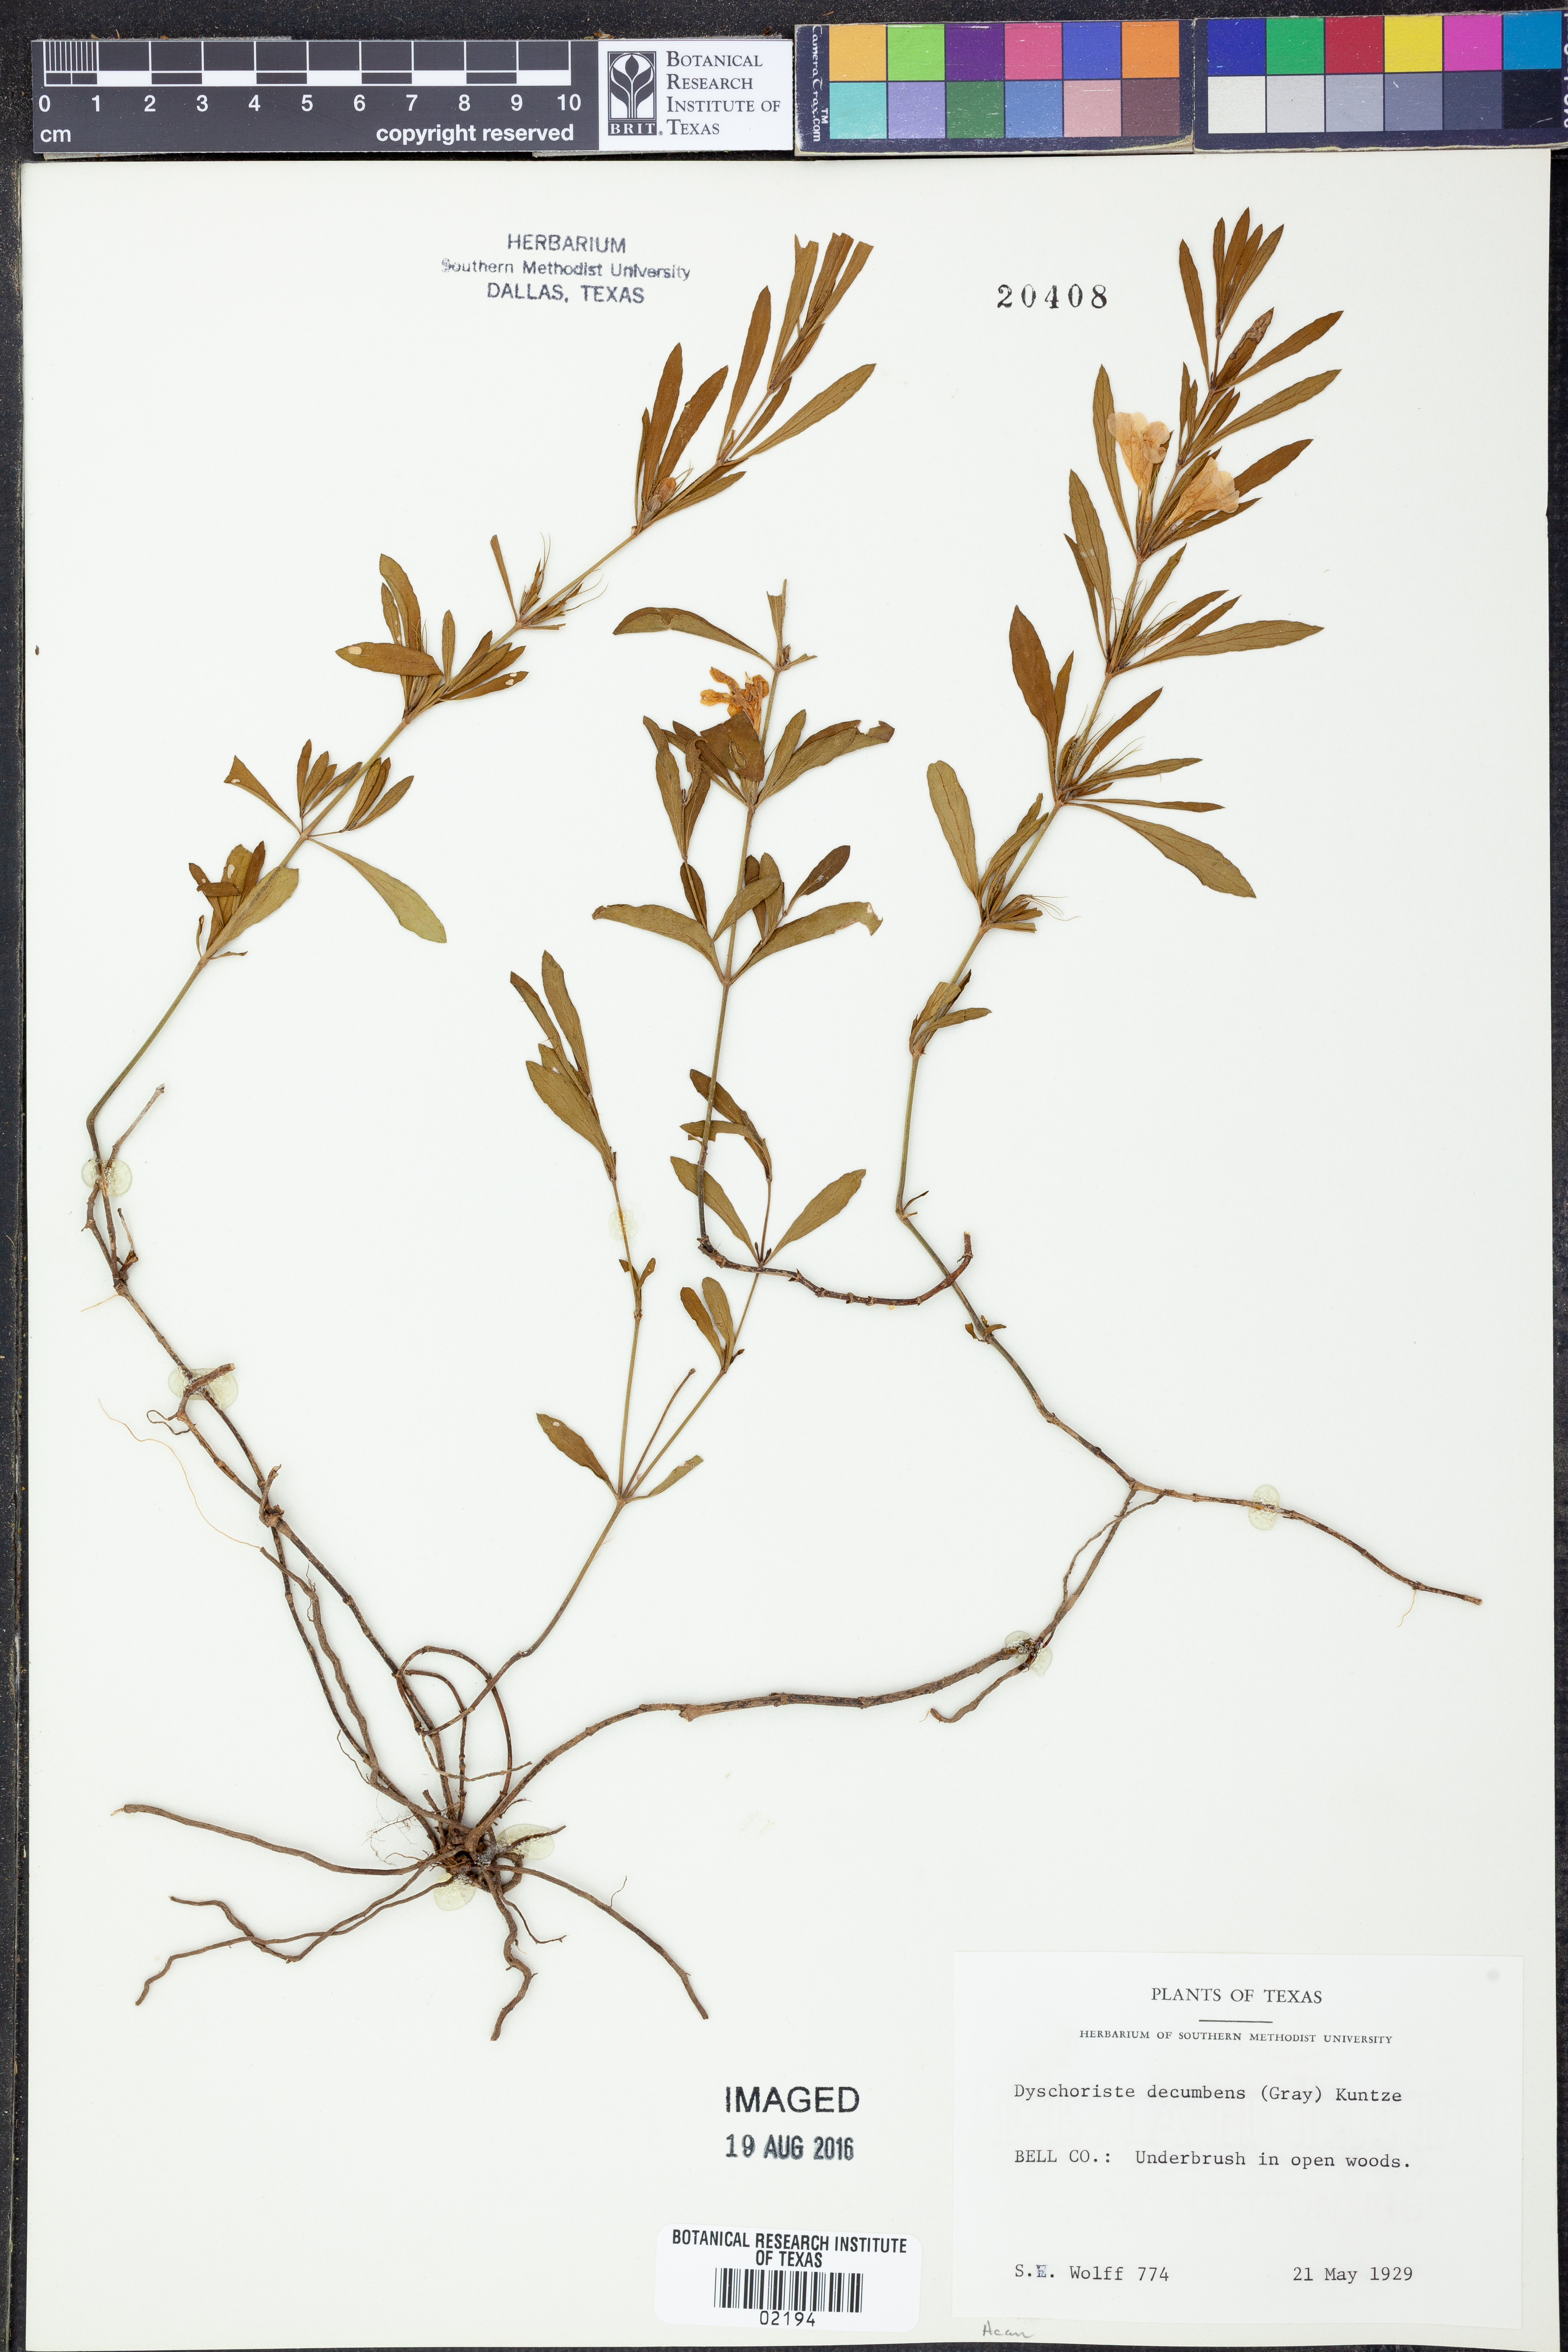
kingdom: Plantae
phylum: Tracheophyta
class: Magnoliopsida
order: Lamiales
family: Acanthaceae
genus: Dyschoriste
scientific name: Dyschoriste linearis
